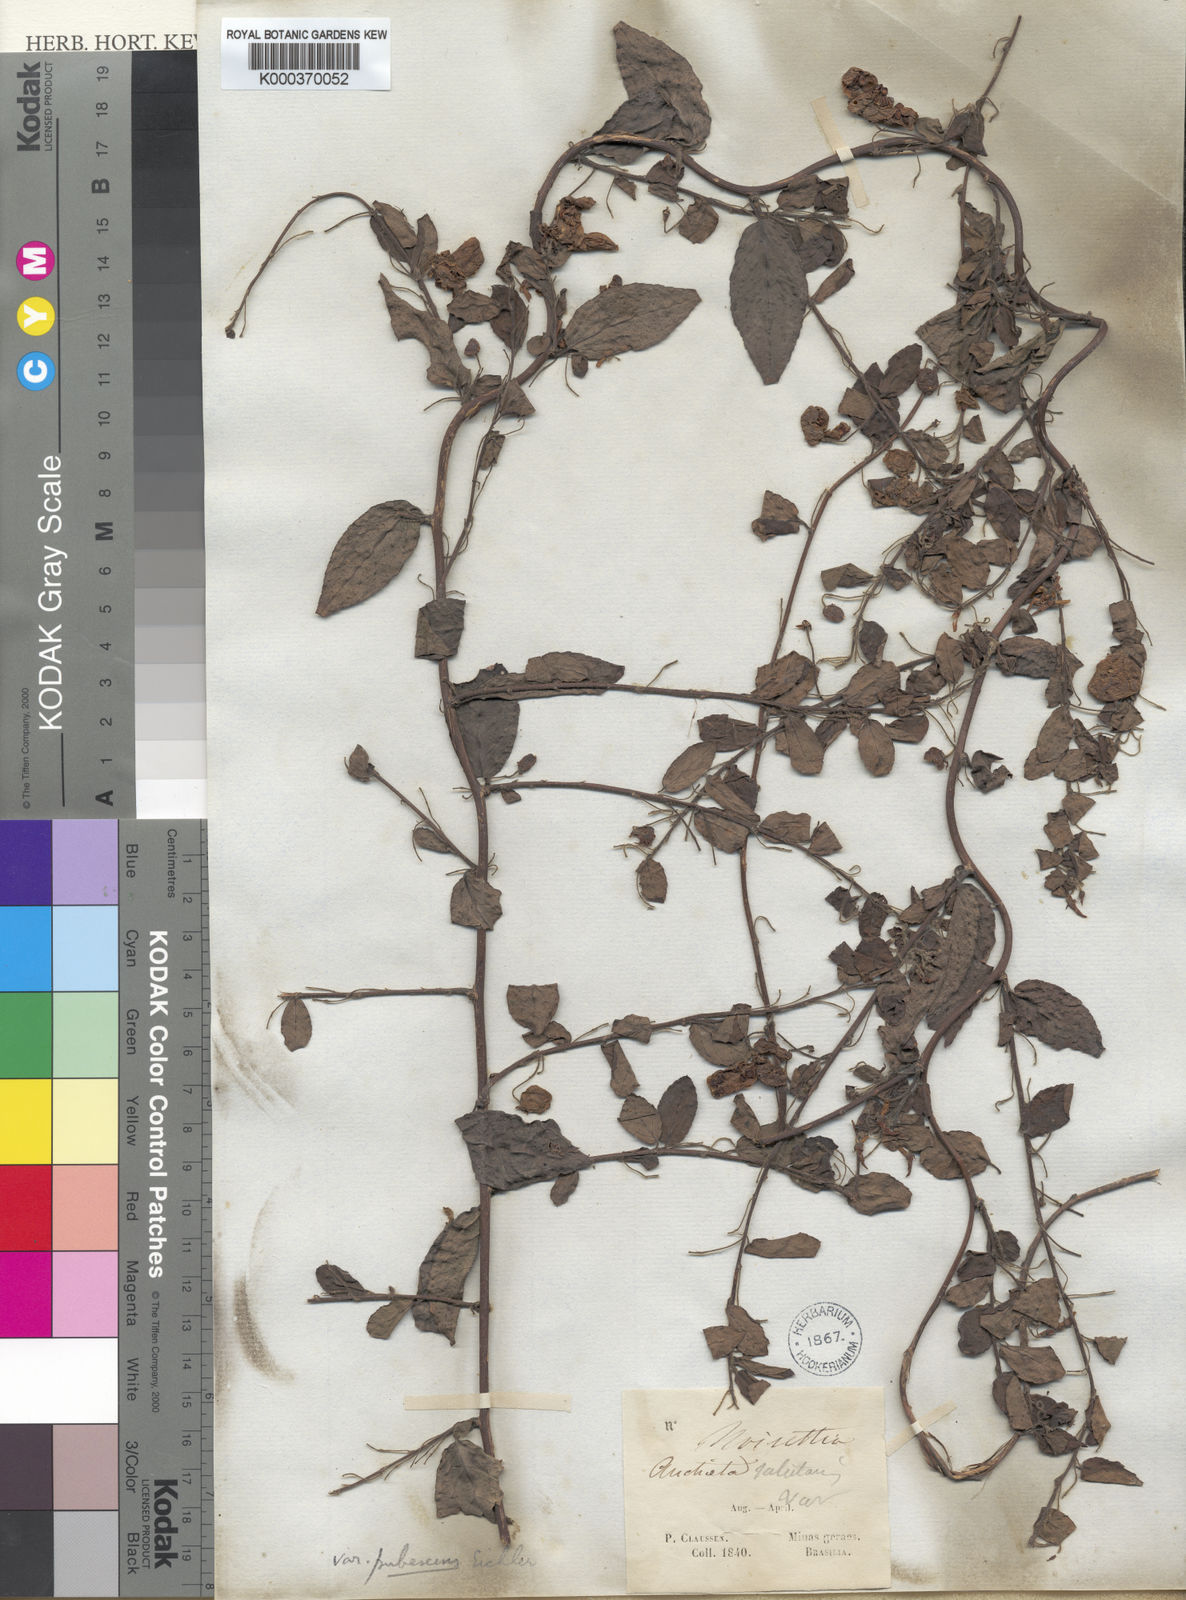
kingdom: Plantae
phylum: Tracheophyta
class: Magnoliopsida
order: Malpighiales
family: Violaceae
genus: Anchietea
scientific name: Anchietea pyrifolia
